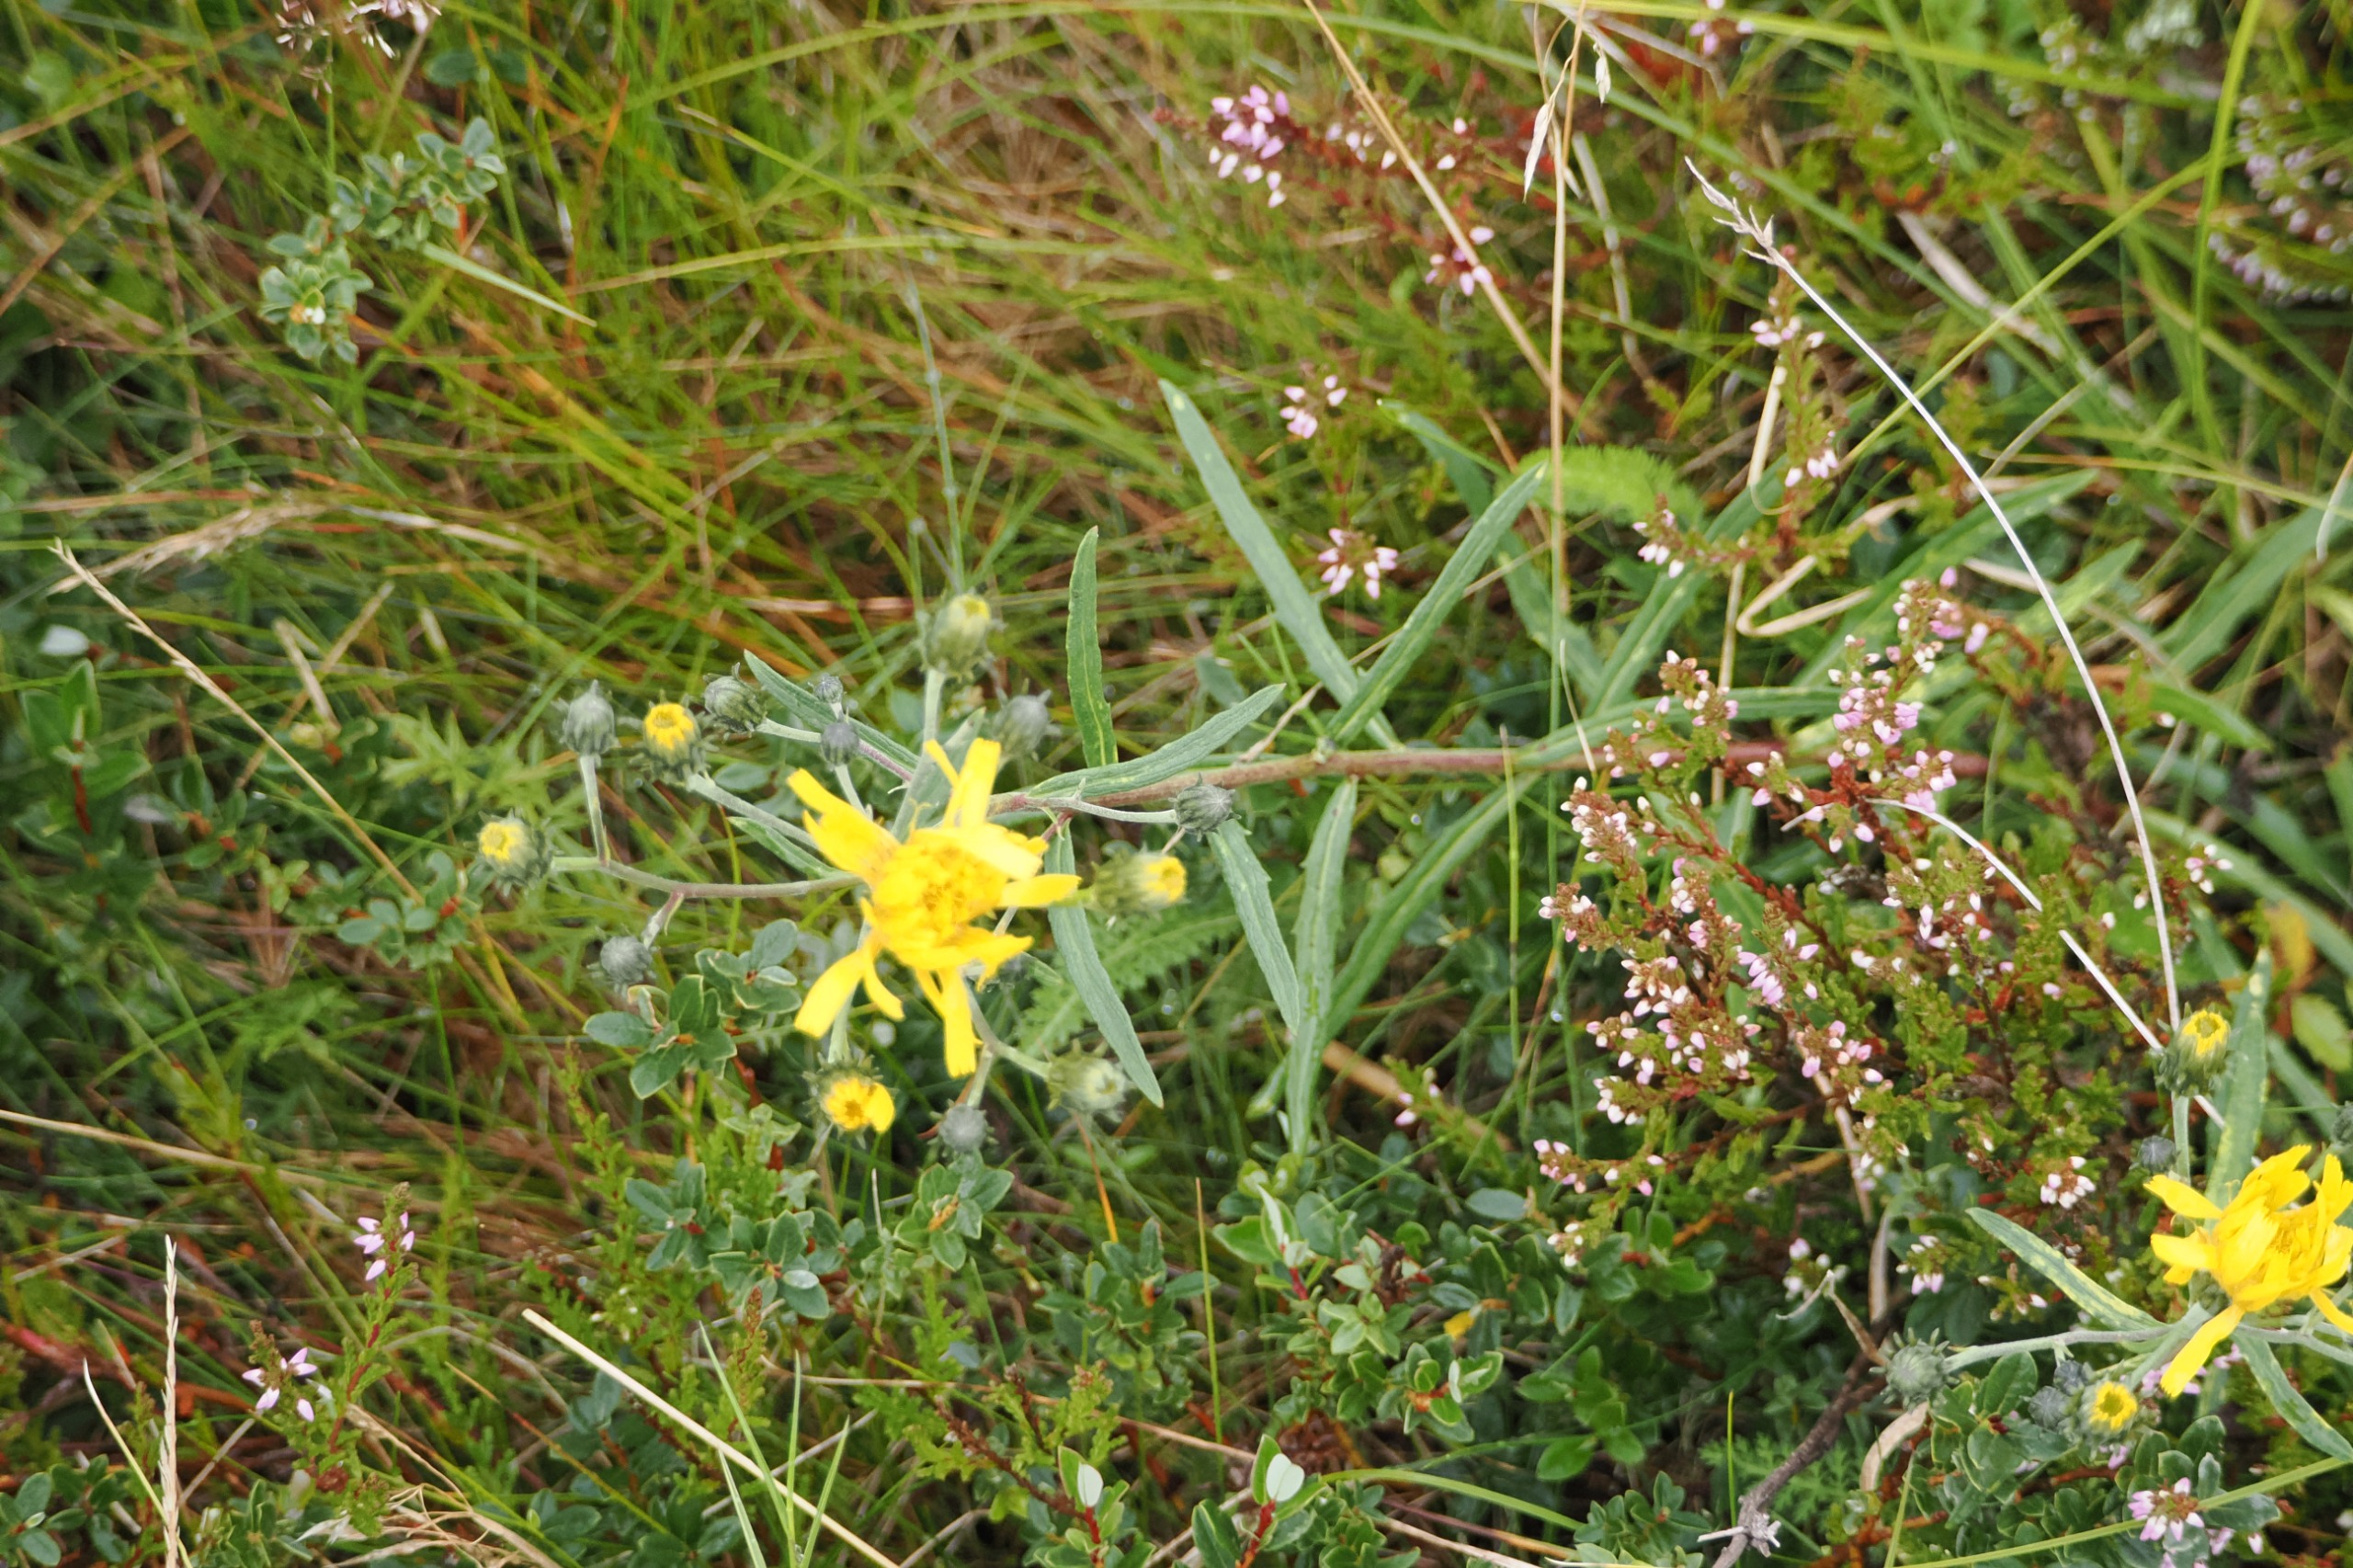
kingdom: Plantae
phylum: Tracheophyta
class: Magnoliopsida
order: Asterales
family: Asteraceae
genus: Hieracium
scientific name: Hieracium umbellatum
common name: Smalbladet høgeurt
